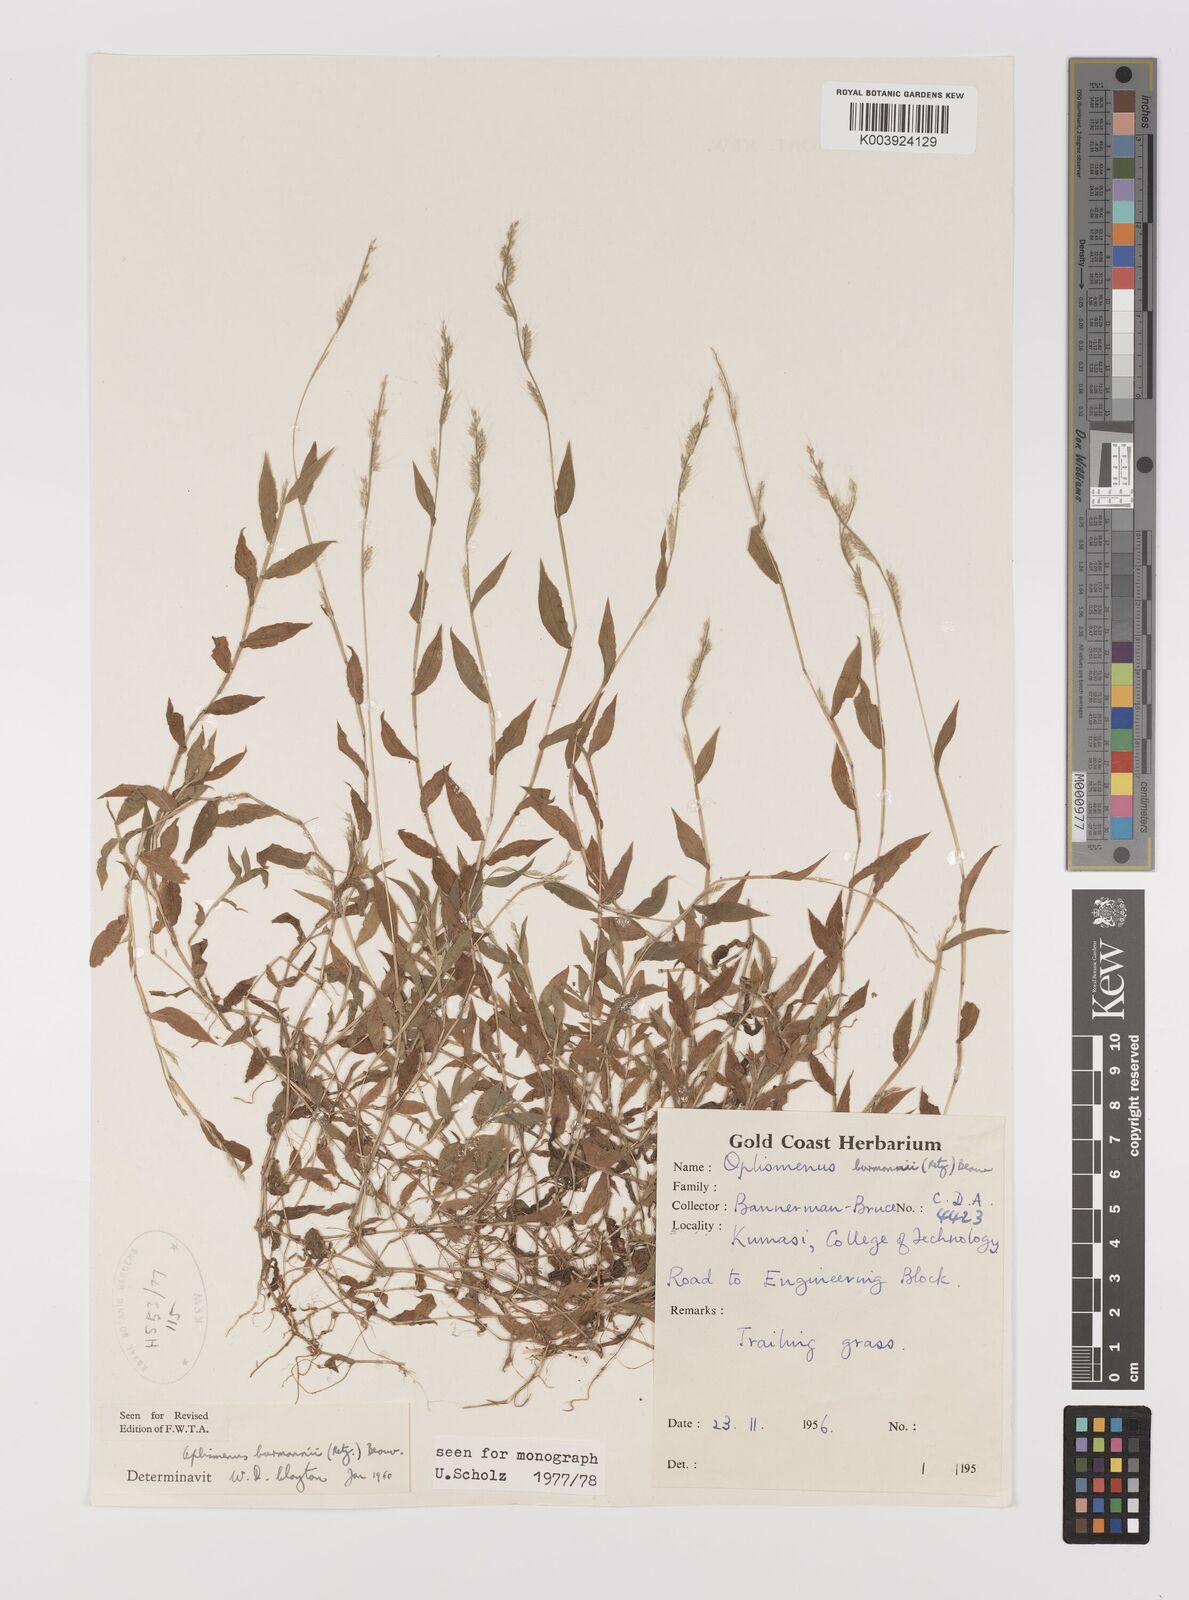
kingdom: Plantae
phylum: Tracheophyta
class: Liliopsida
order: Poales
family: Poaceae
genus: Oplismenus
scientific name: Oplismenus burmanni
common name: Burmann's basketgrass
